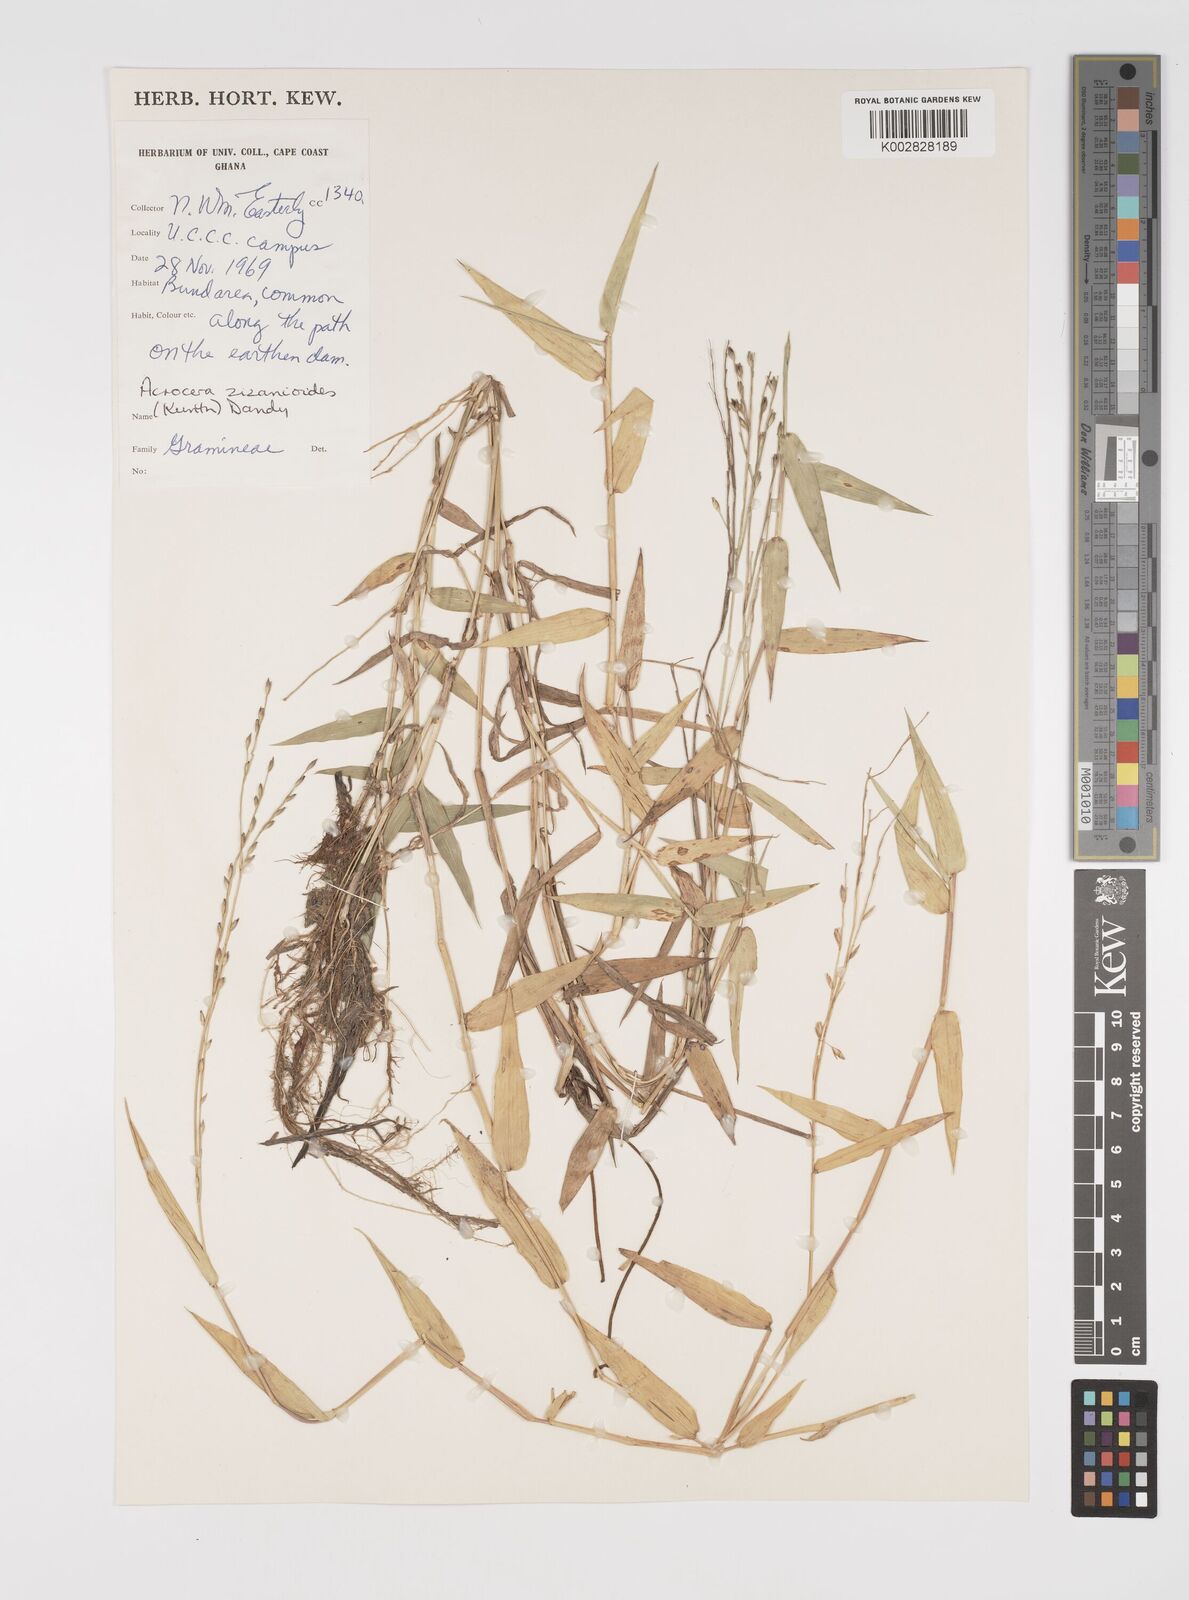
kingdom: Plantae
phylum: Tracheophyta
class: Liliopsida
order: Poales
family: Poaceae
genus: Acroceras
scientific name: Acroceras zizanioides
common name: Oat grass
